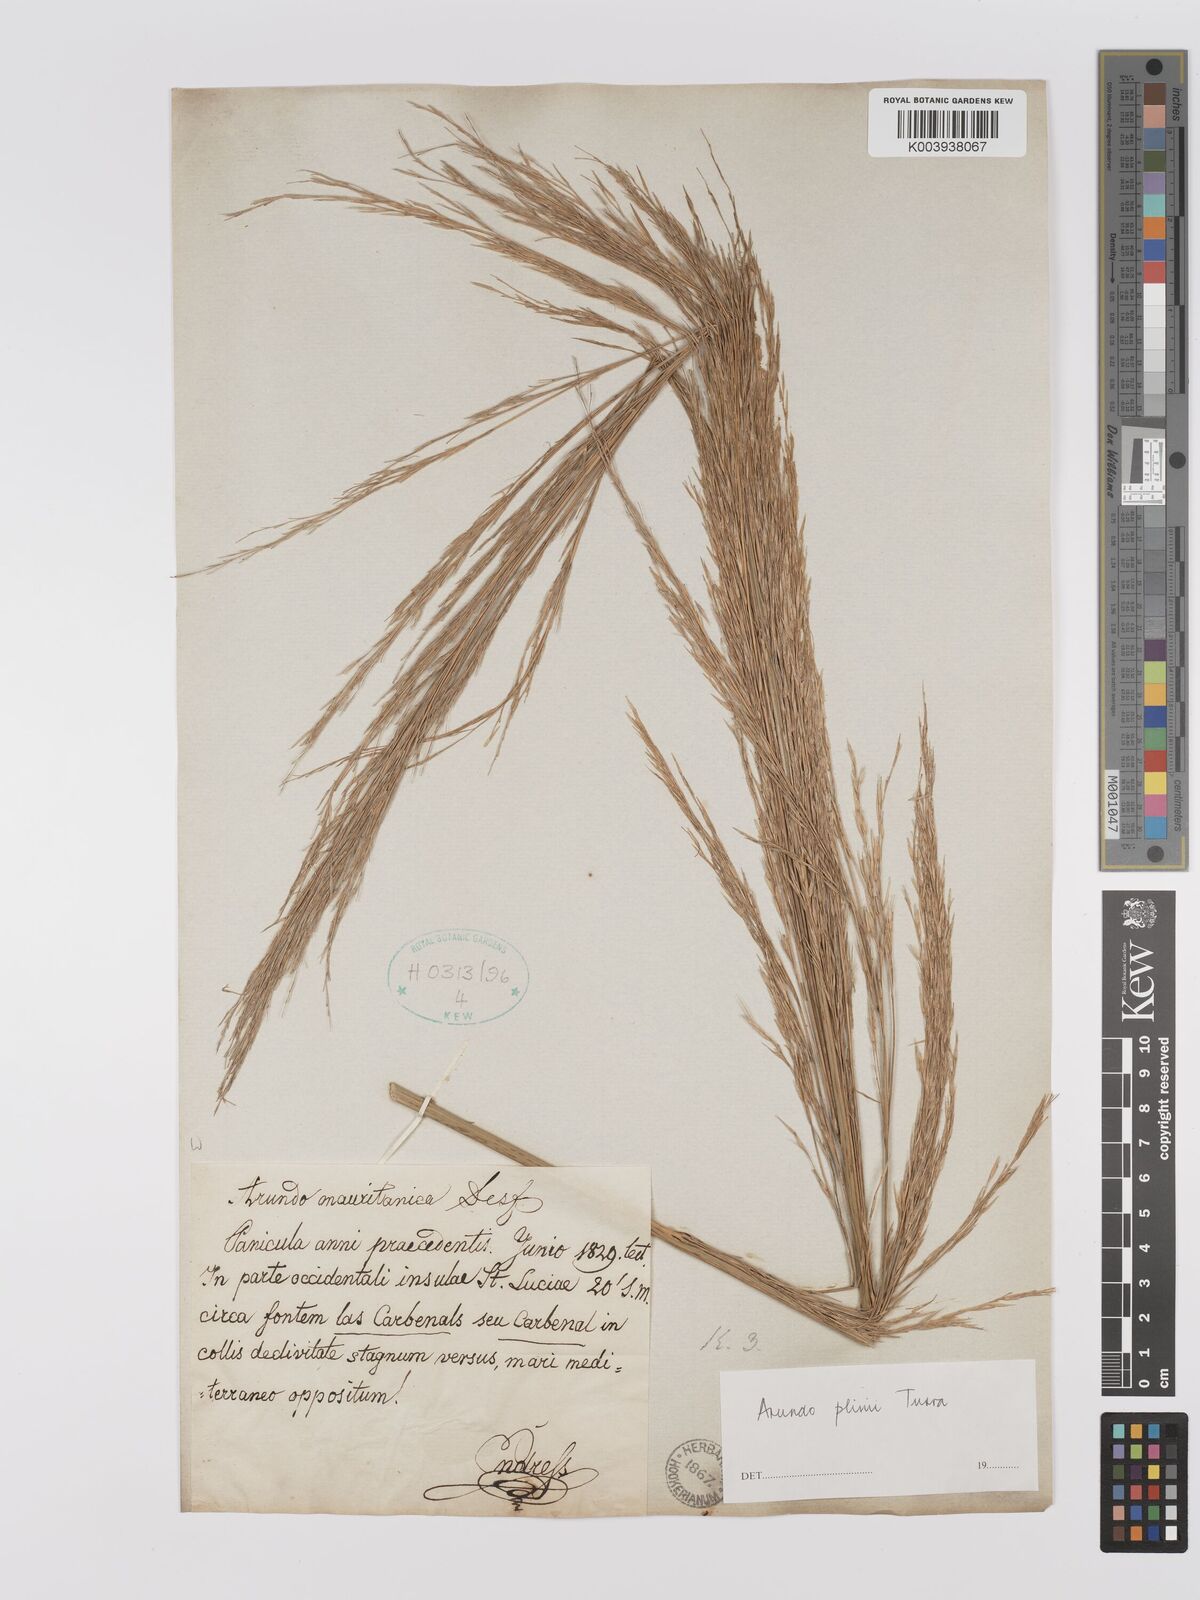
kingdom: Plantae
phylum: Tracheophyta
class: Liliopsida
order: Poales
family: Poaceae
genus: Arundo
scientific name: Arundo donax
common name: Giant reed
